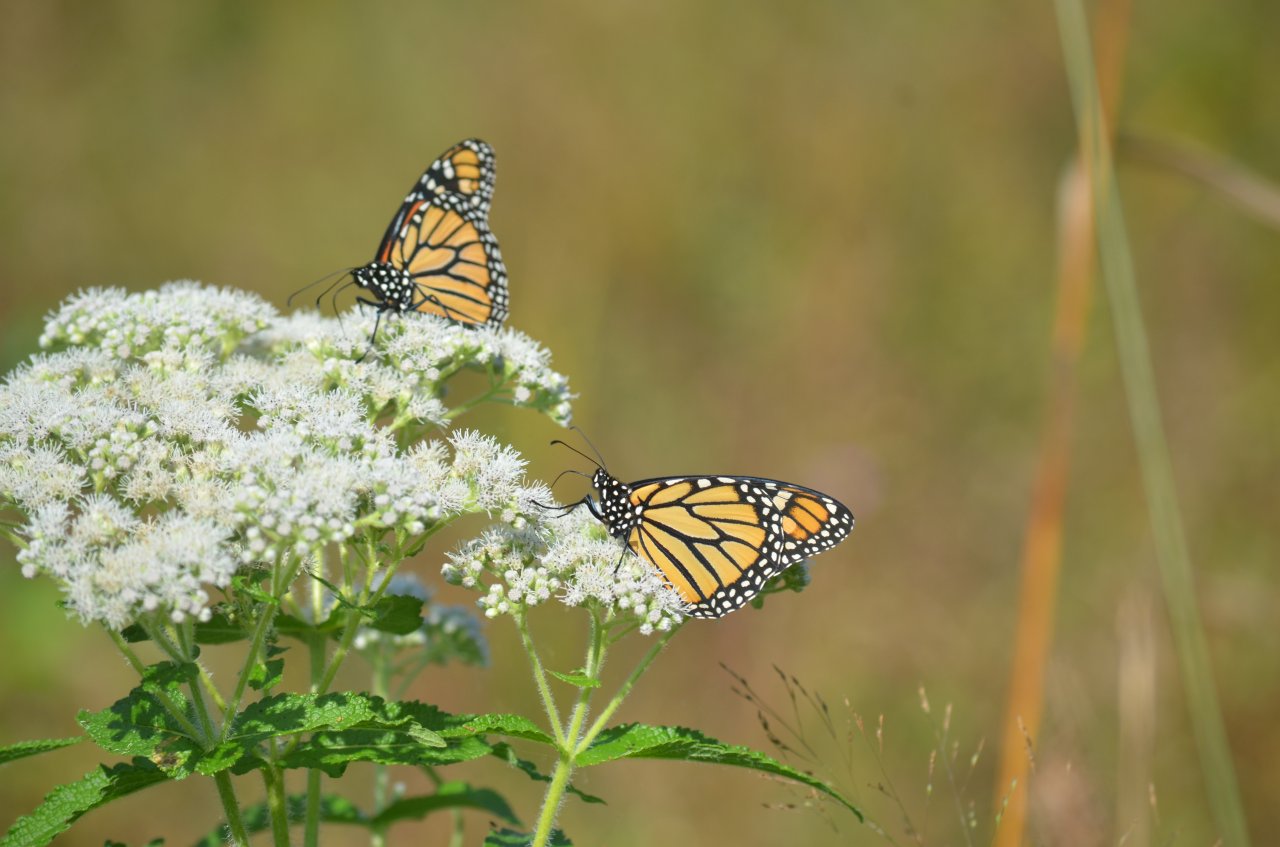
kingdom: Animalia
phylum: Arthropoda
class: Insecta
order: Lepidoptera
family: Nymphalidae
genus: Danaus
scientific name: Danaus plexippus
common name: Monarch
